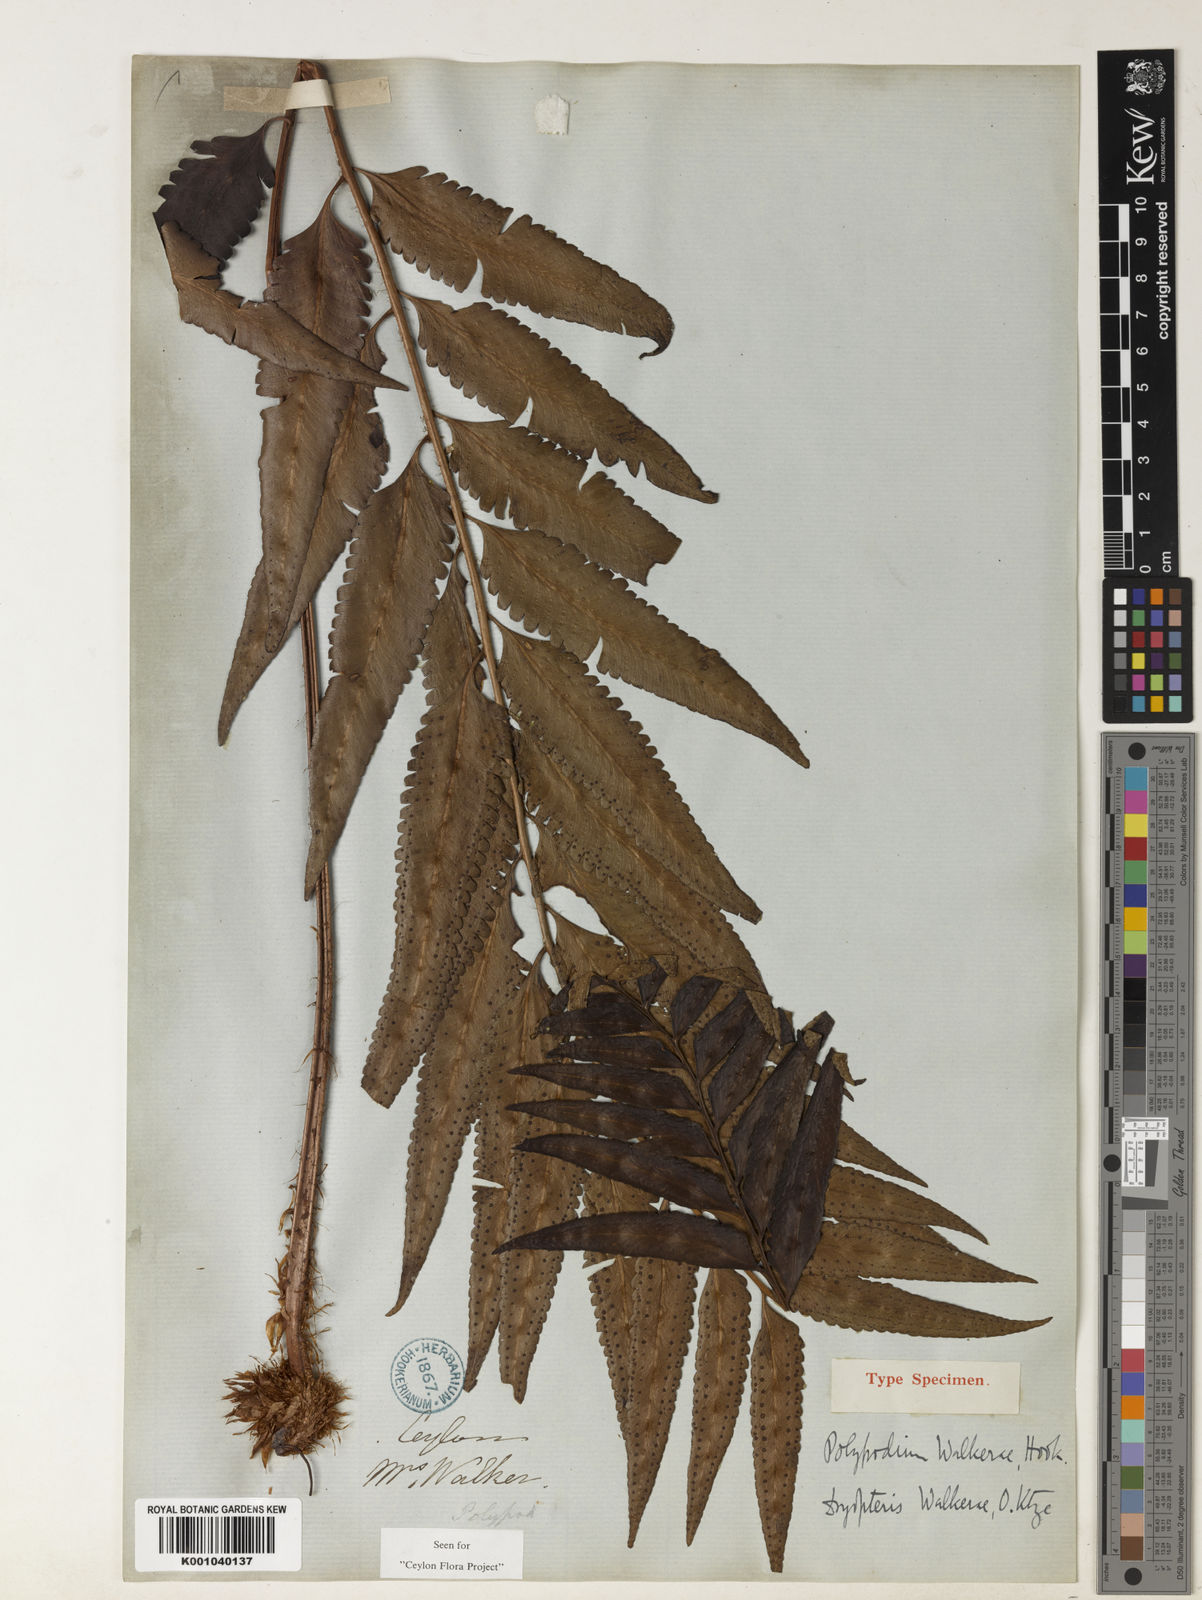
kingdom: Plantae
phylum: Tracheophyta
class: Polypodiopsida
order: Polypodiales
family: Dryopteridaceae
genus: Polystichum
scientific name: Polystichum walkerae
